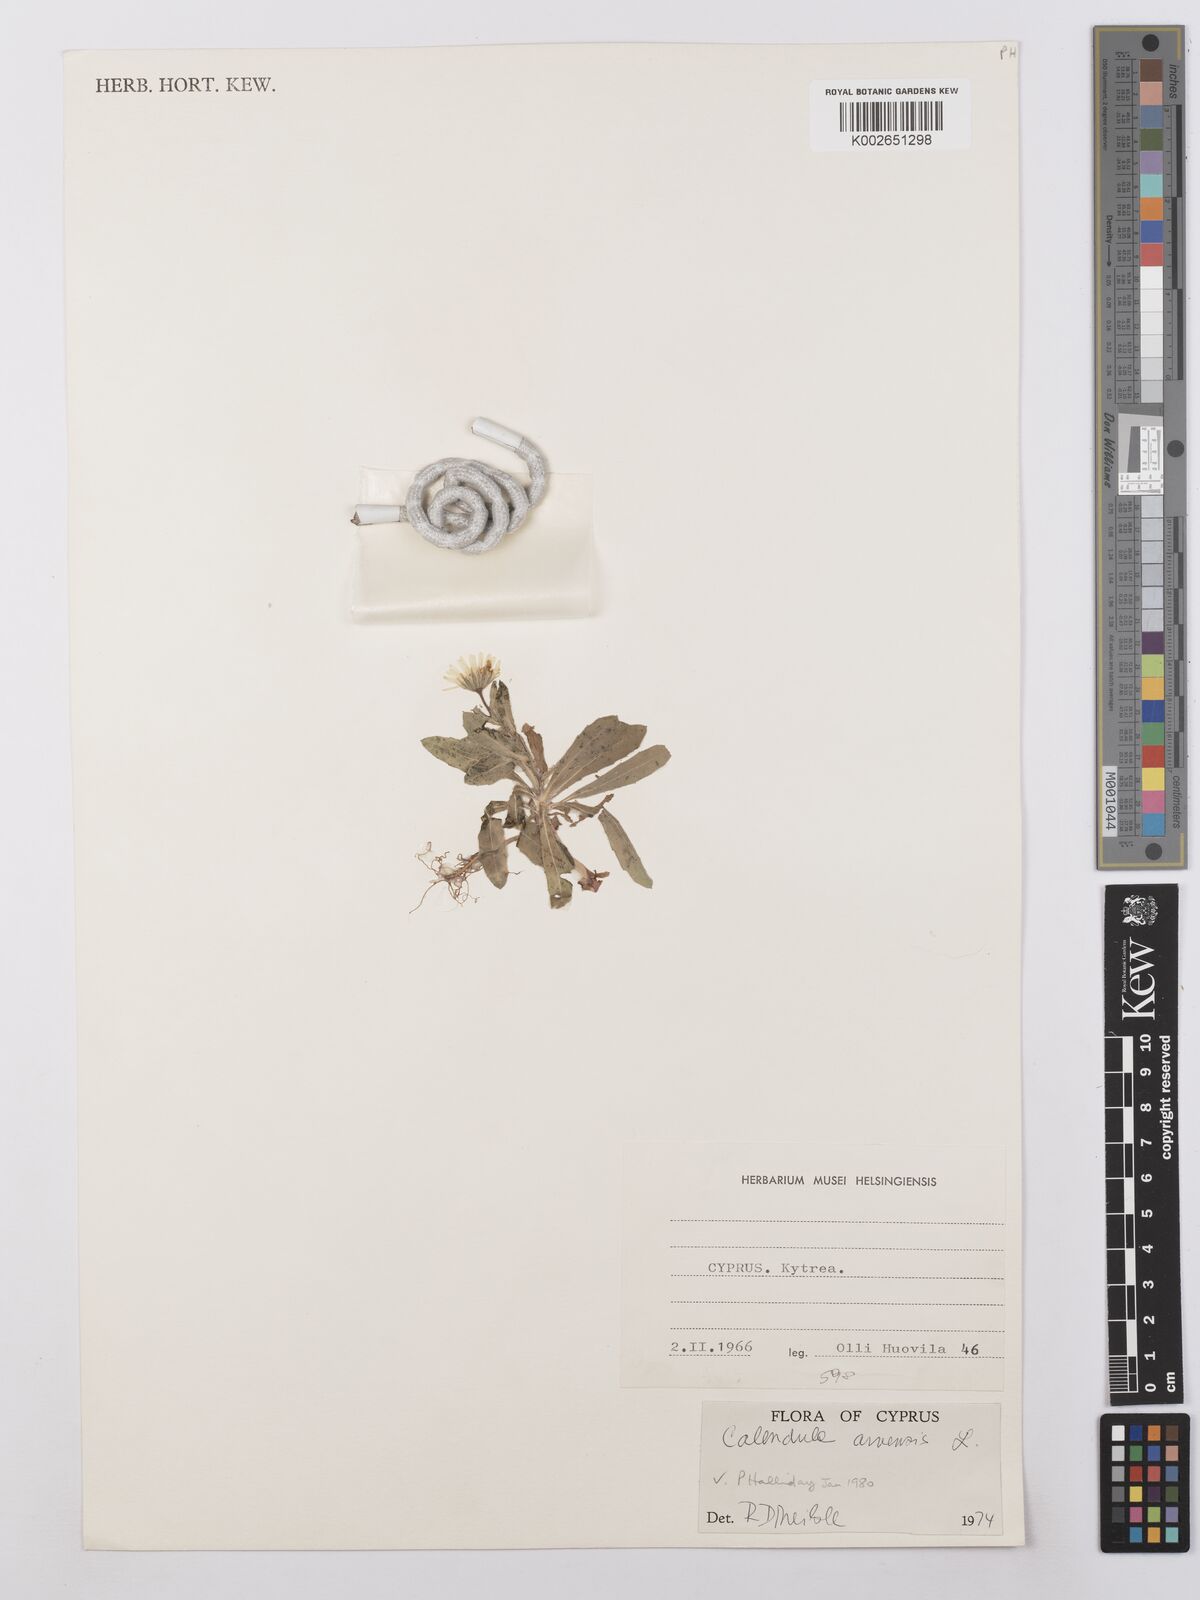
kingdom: Plantae
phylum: Tracheophyta
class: Magnoliopsida
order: Asterales
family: Asteraceae
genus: Calendula
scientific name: Calendula arvensis
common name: Field marigold
